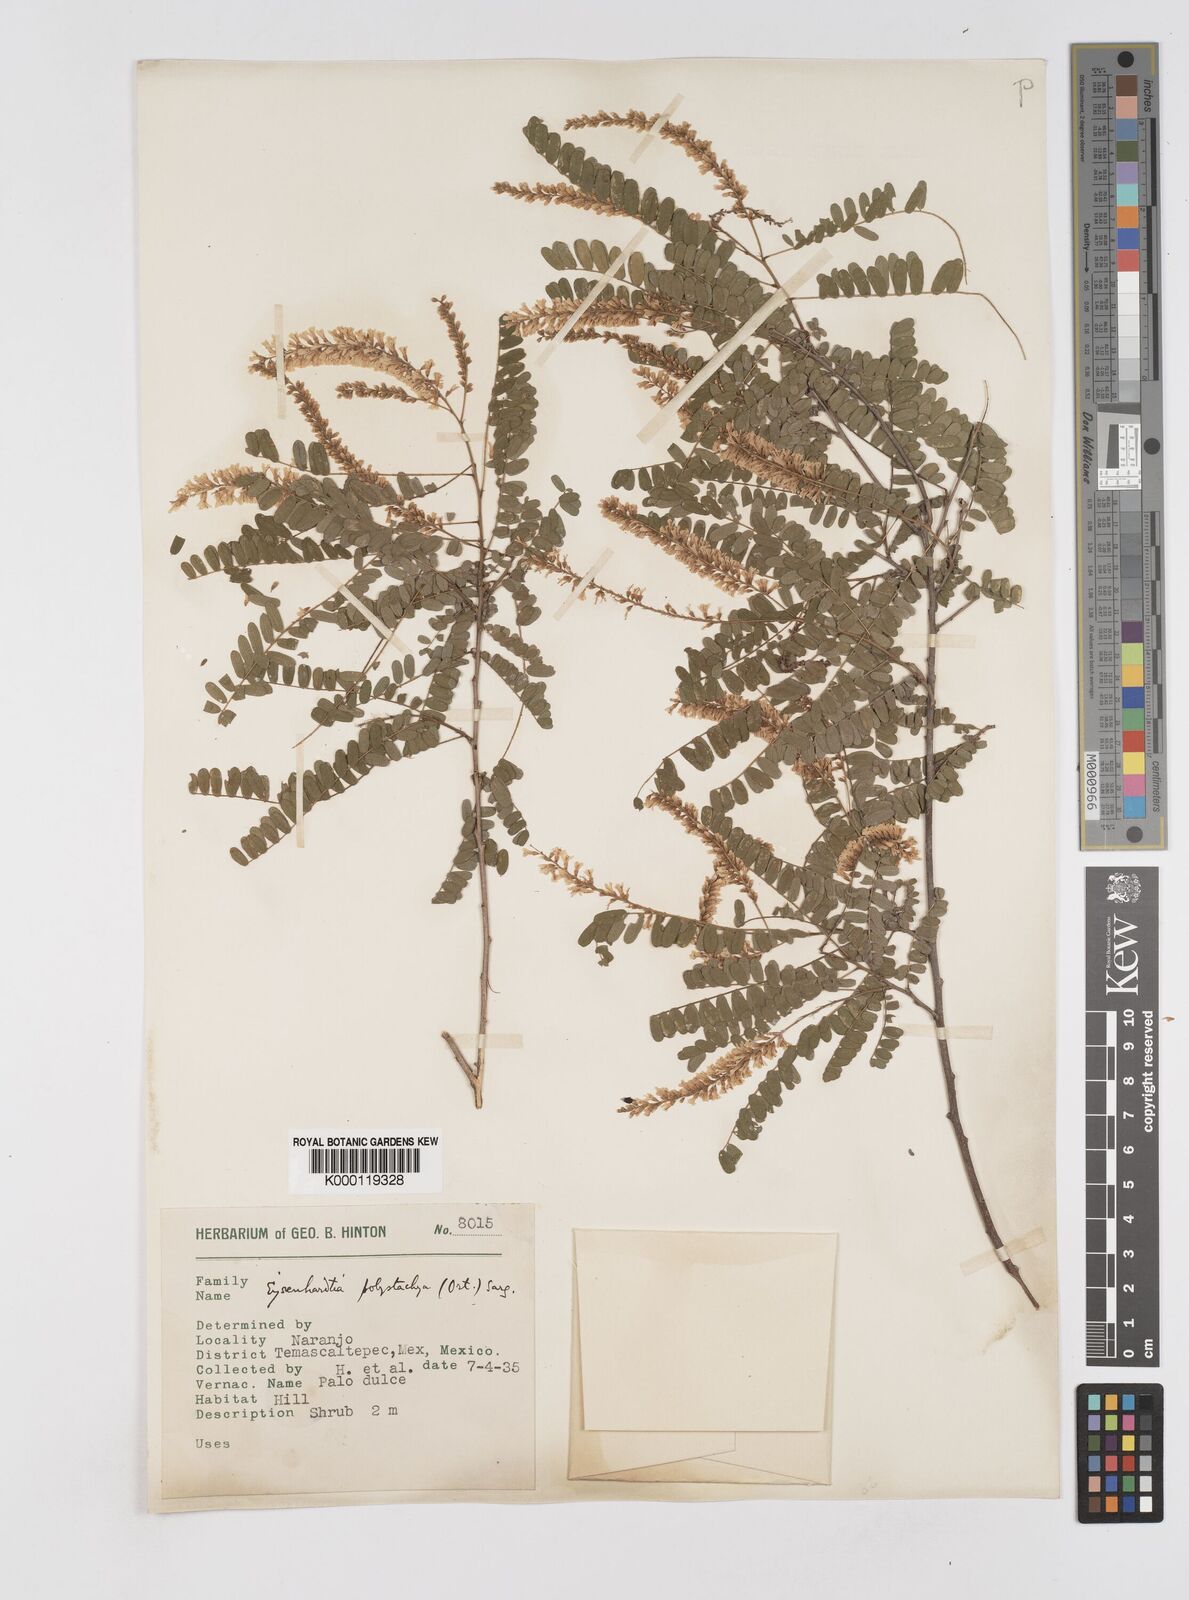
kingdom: Plantae
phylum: Tracheophyta
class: Magnoliopsida
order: Fabales
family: Fabaceae
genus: Eysenhardtia
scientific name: Eysenhardtia polystachya
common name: Kidneywood
